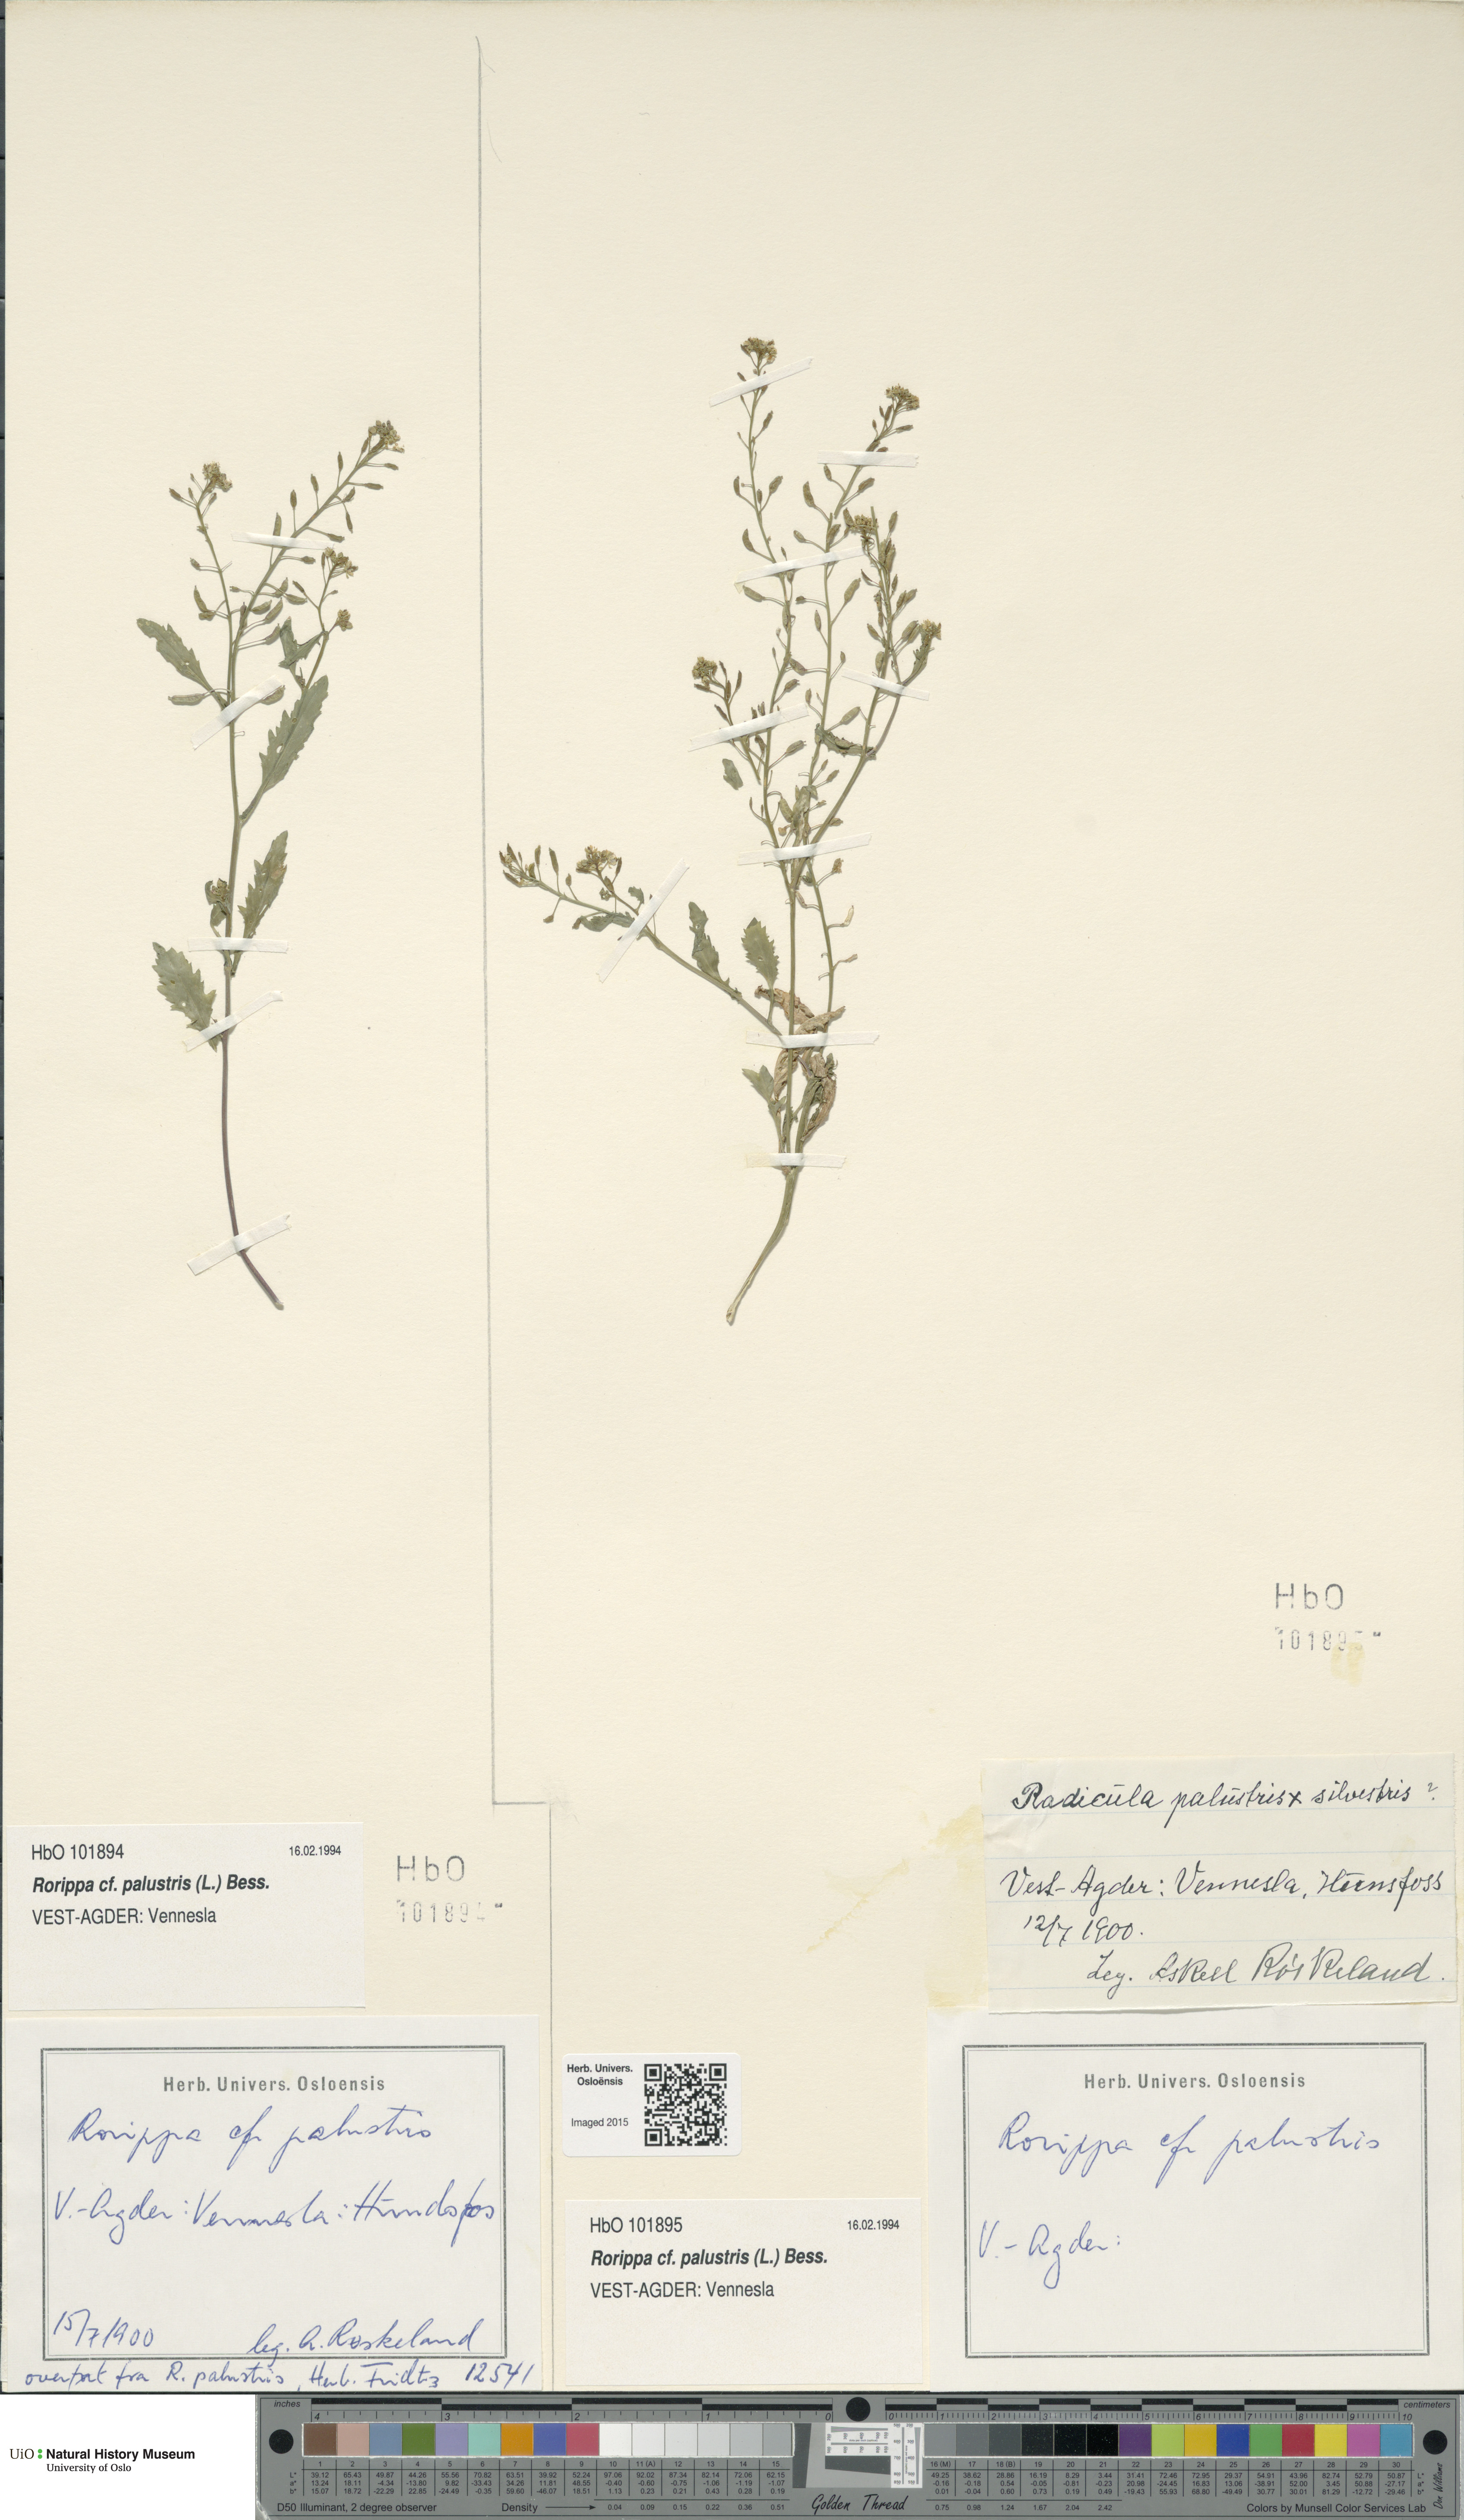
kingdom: Plantae
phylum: Tracheophyta
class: Magnoliopsida
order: Brassicales
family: Brassicaceae
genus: Rorippa
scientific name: Rorippa palustris
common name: Marsh yellow-cress
